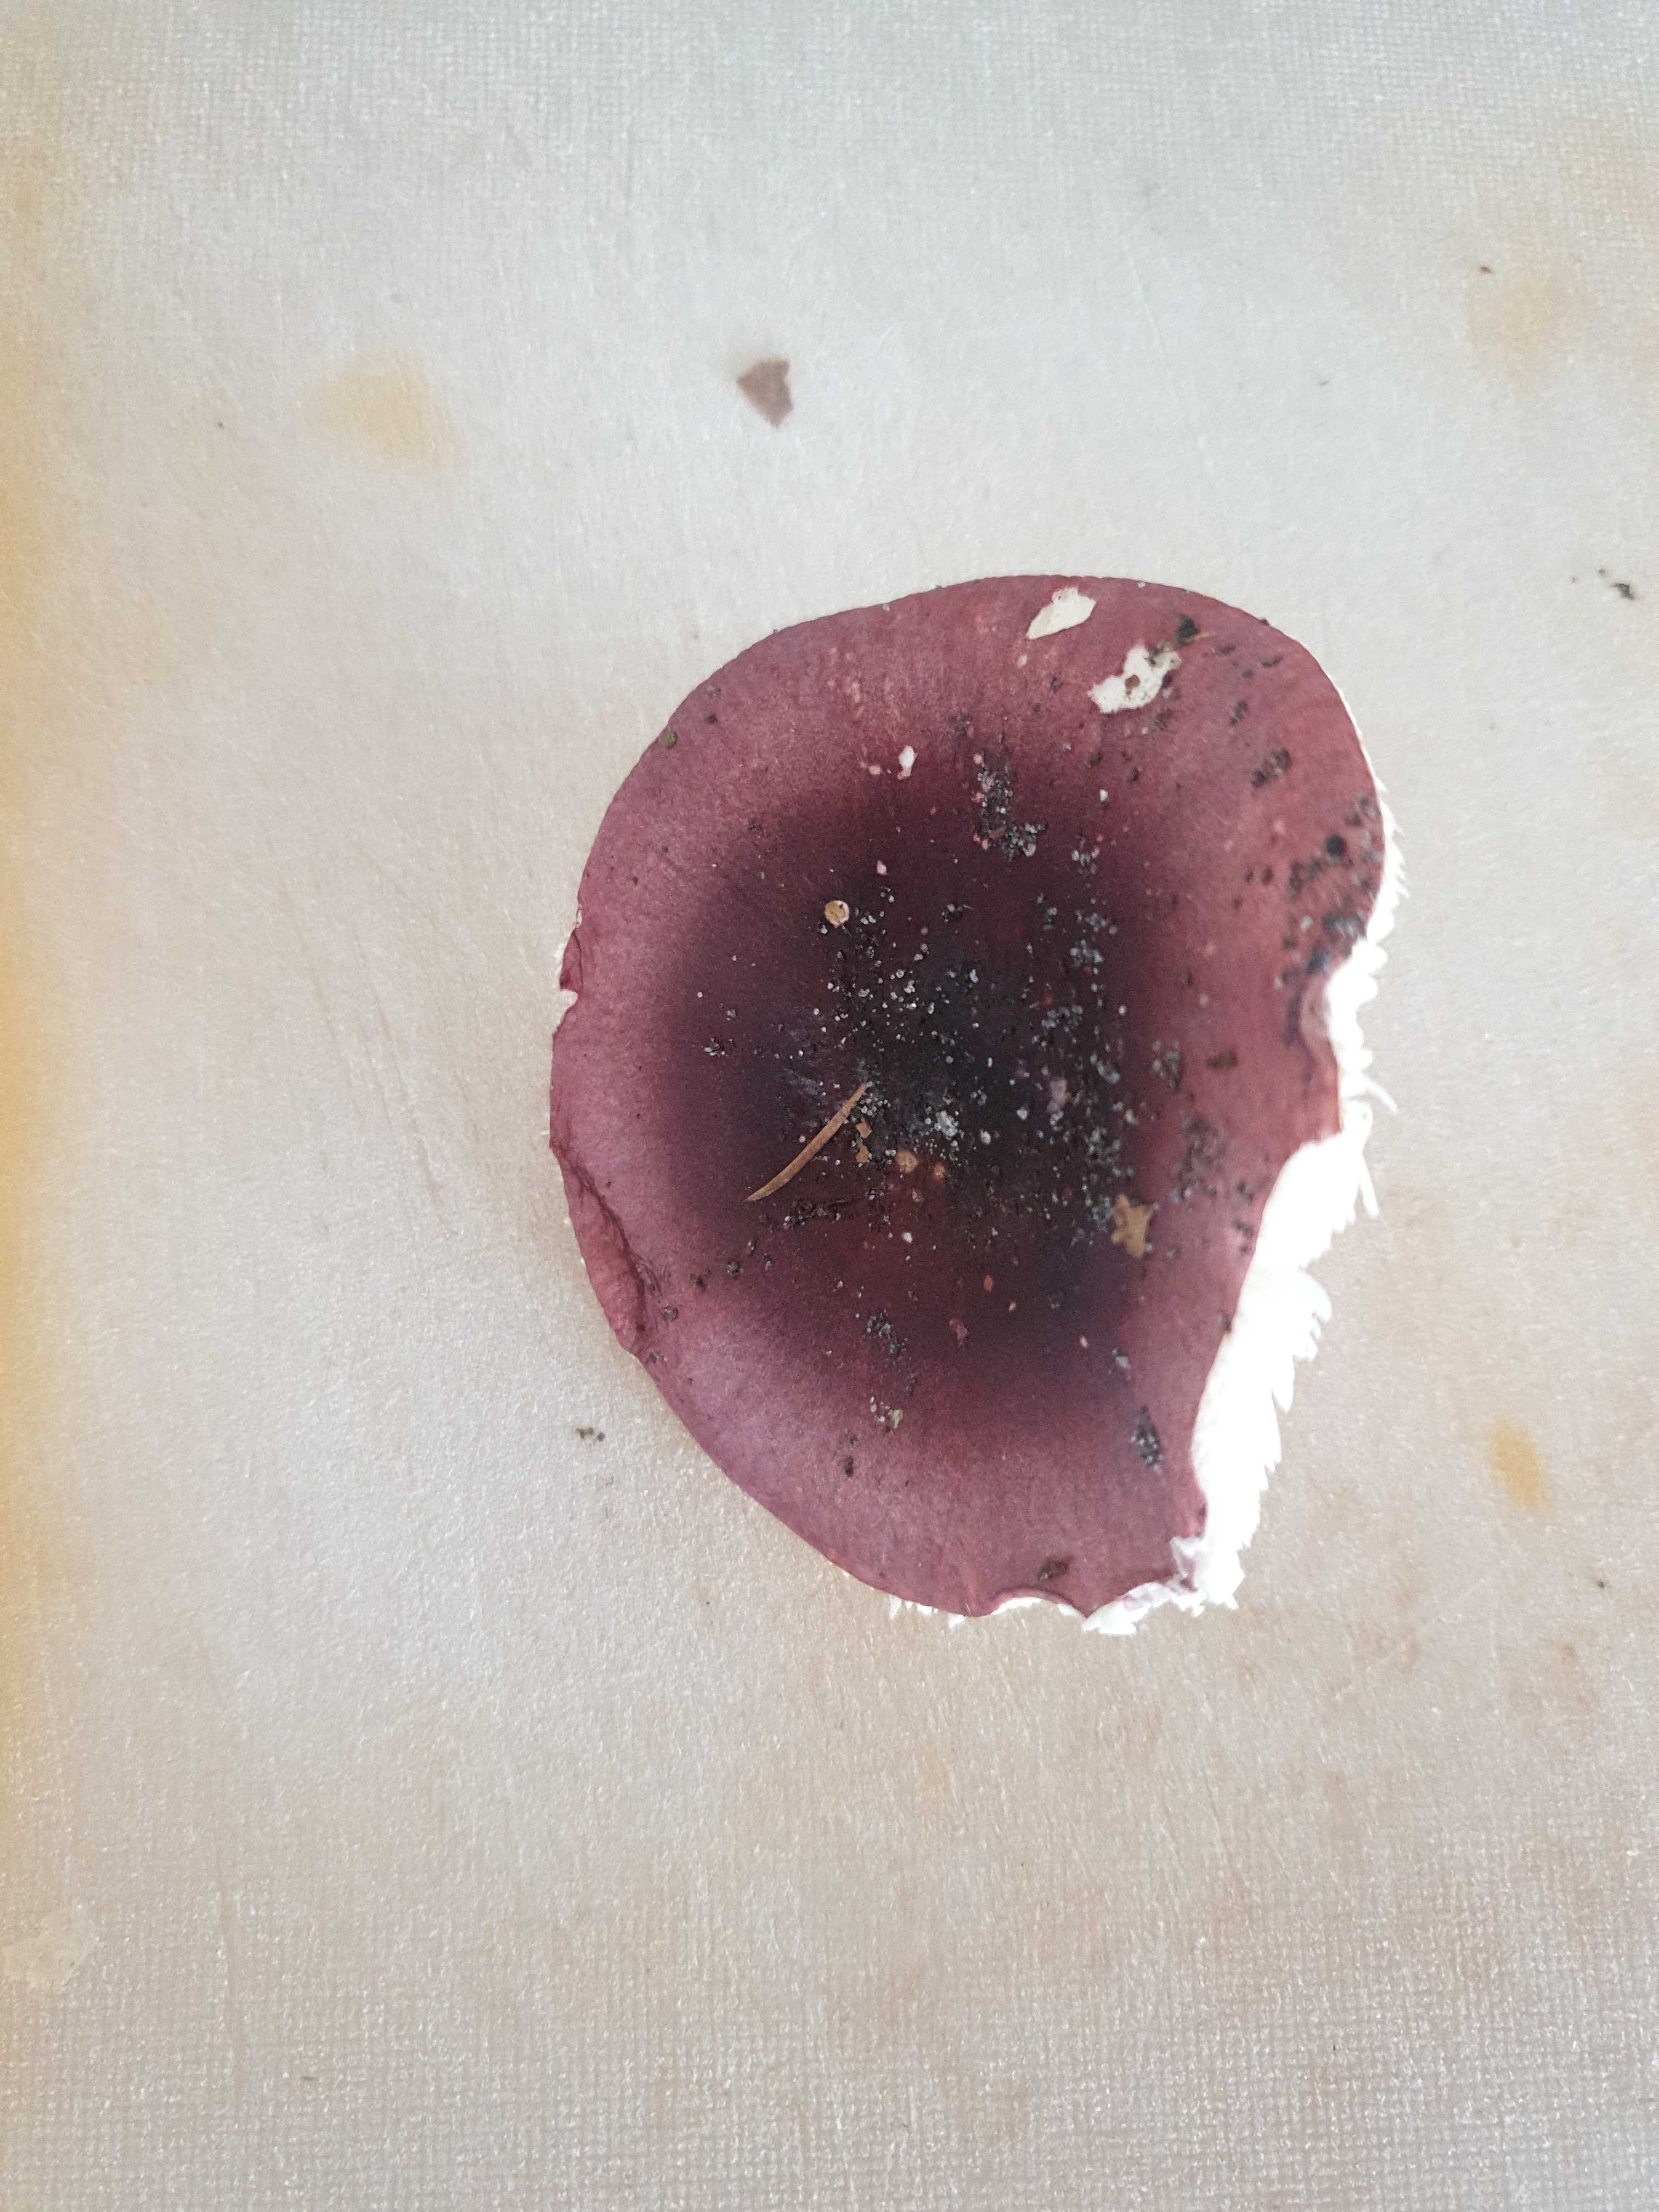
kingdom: Fungi
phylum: Basidiomycota
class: Agaricomycetes
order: Russulales
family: Russulaceae
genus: Russula
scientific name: Russula
